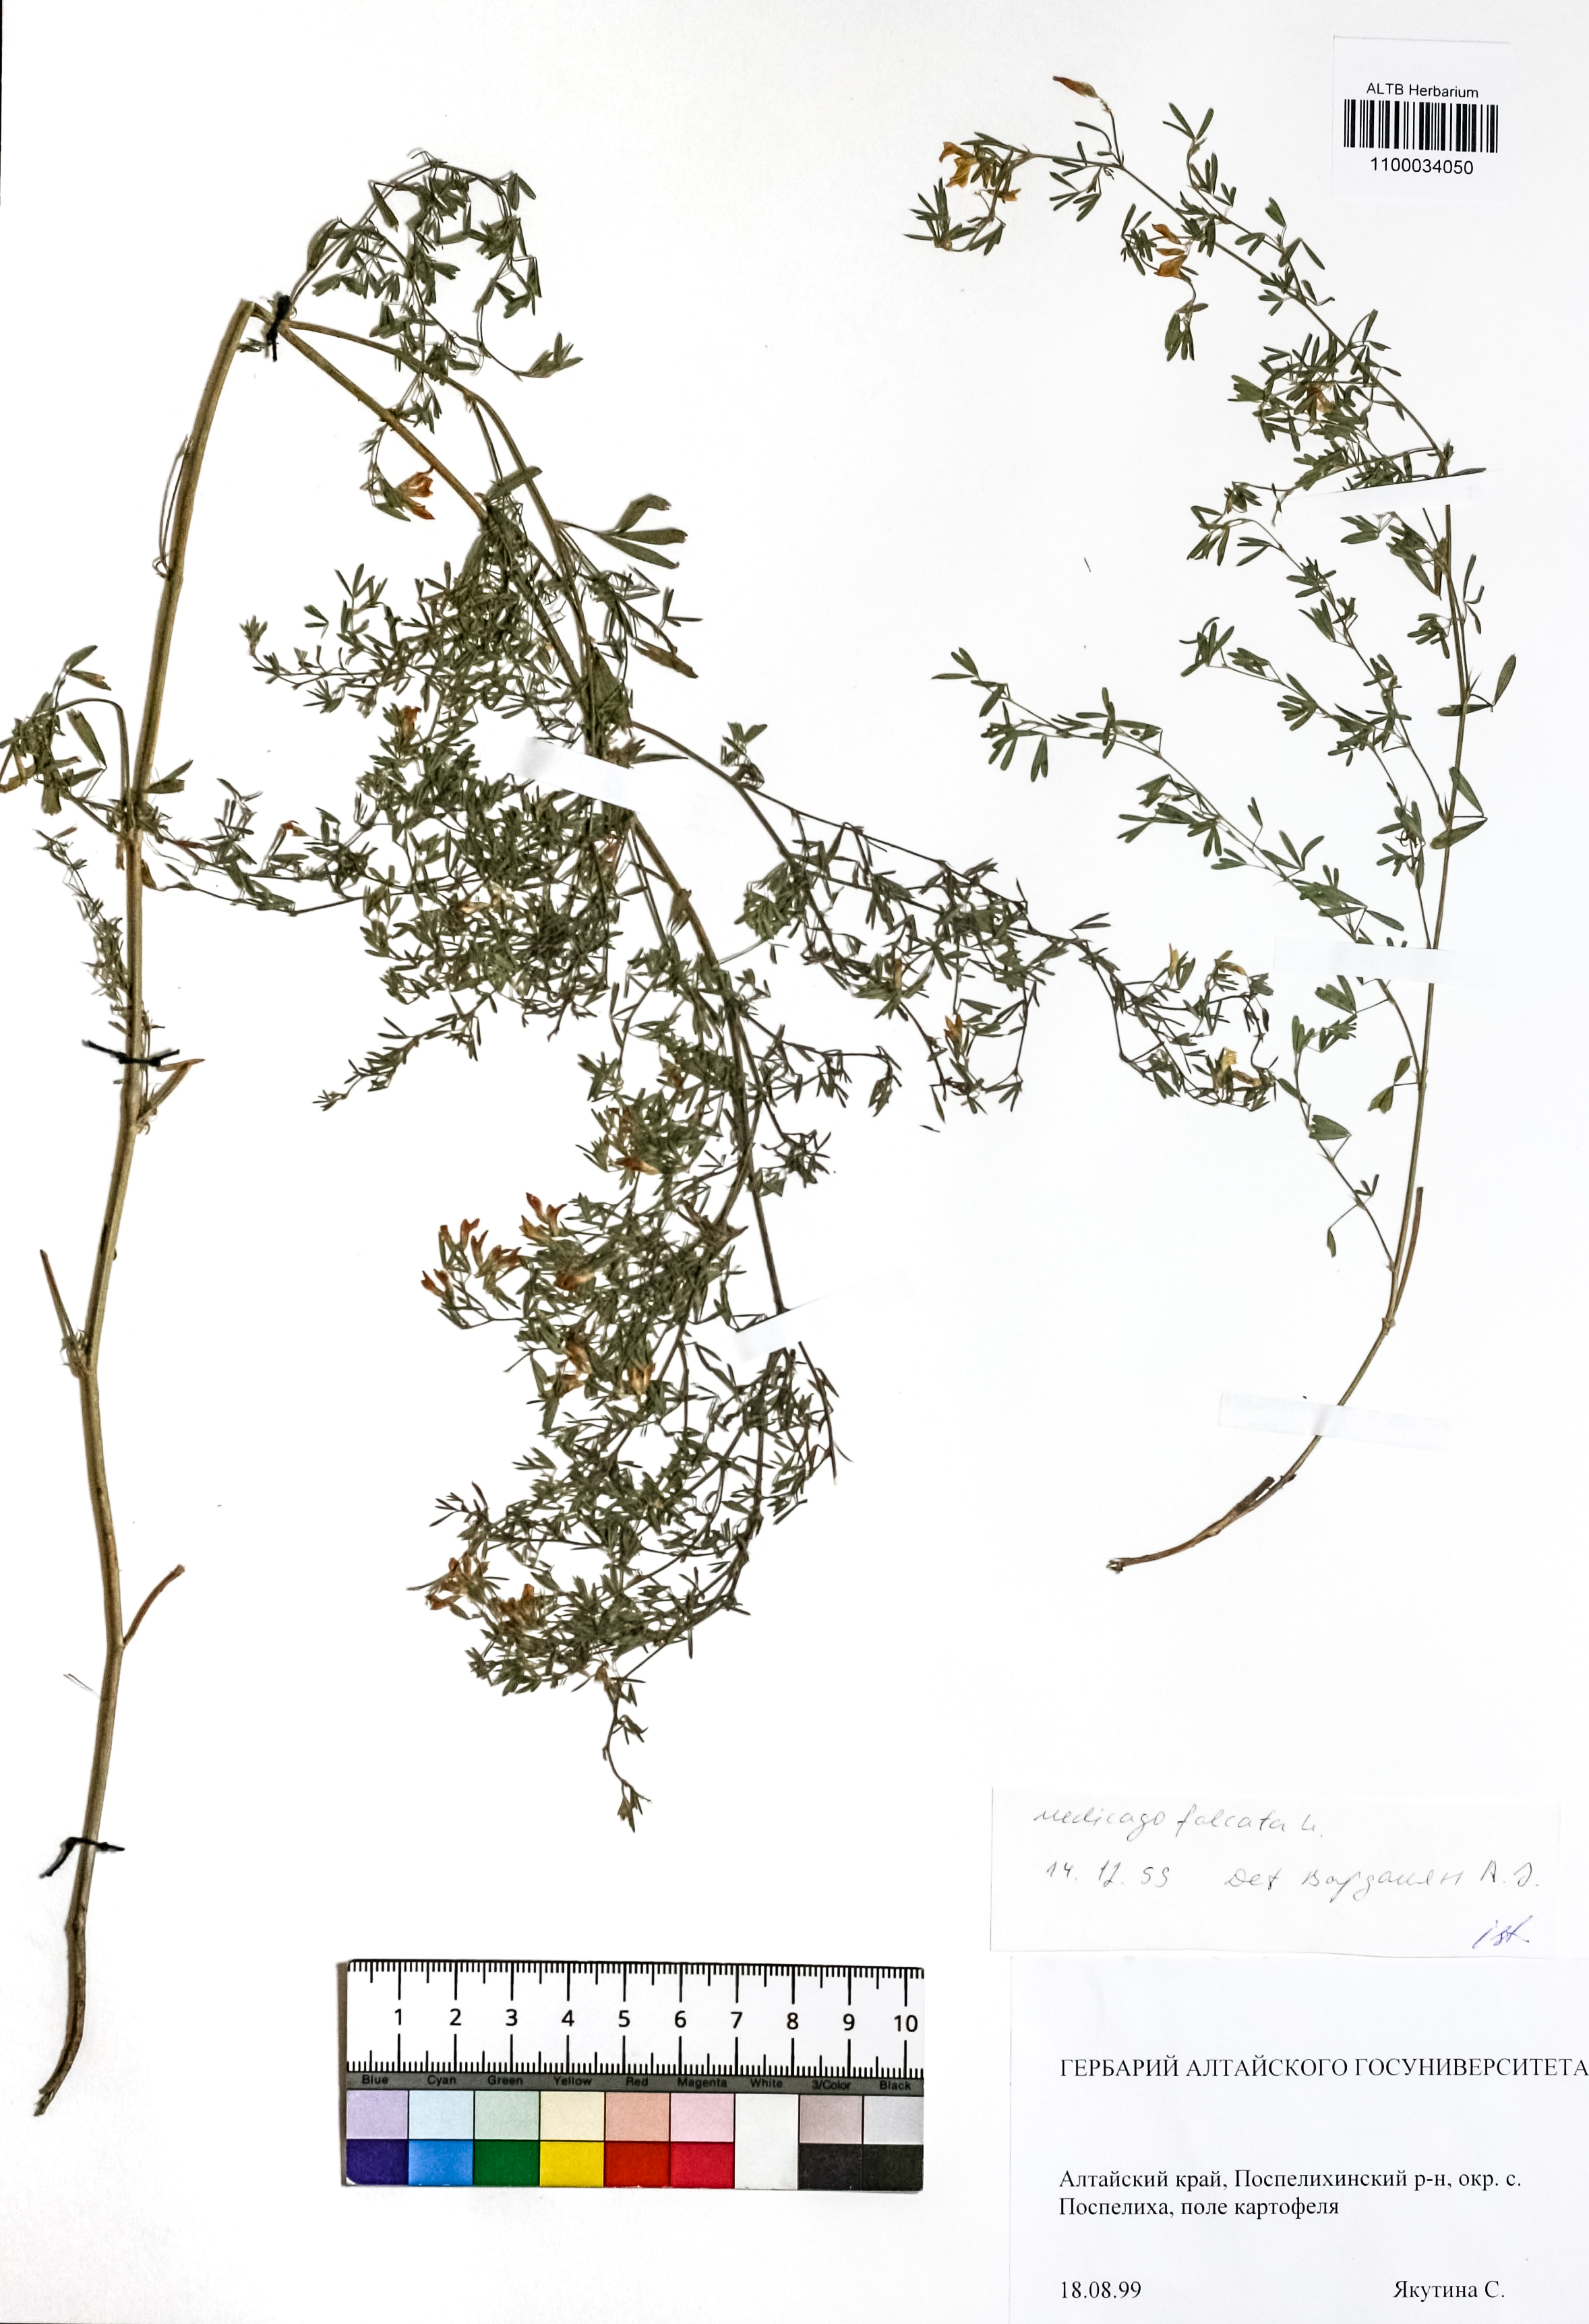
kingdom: Plantae
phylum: Tracheophyta
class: Magnoliopsida
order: Fabales
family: Fabaceae
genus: Medicago
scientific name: Medicago falcata
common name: Sickle medick
